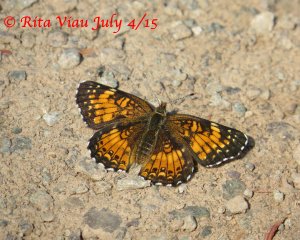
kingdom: Animalia
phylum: Arthropoda
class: Insecta
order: Lepidoptera
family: Nymphalidae
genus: Chlosyne
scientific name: Chlosyne harrisii
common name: Harris's Checkerspot
